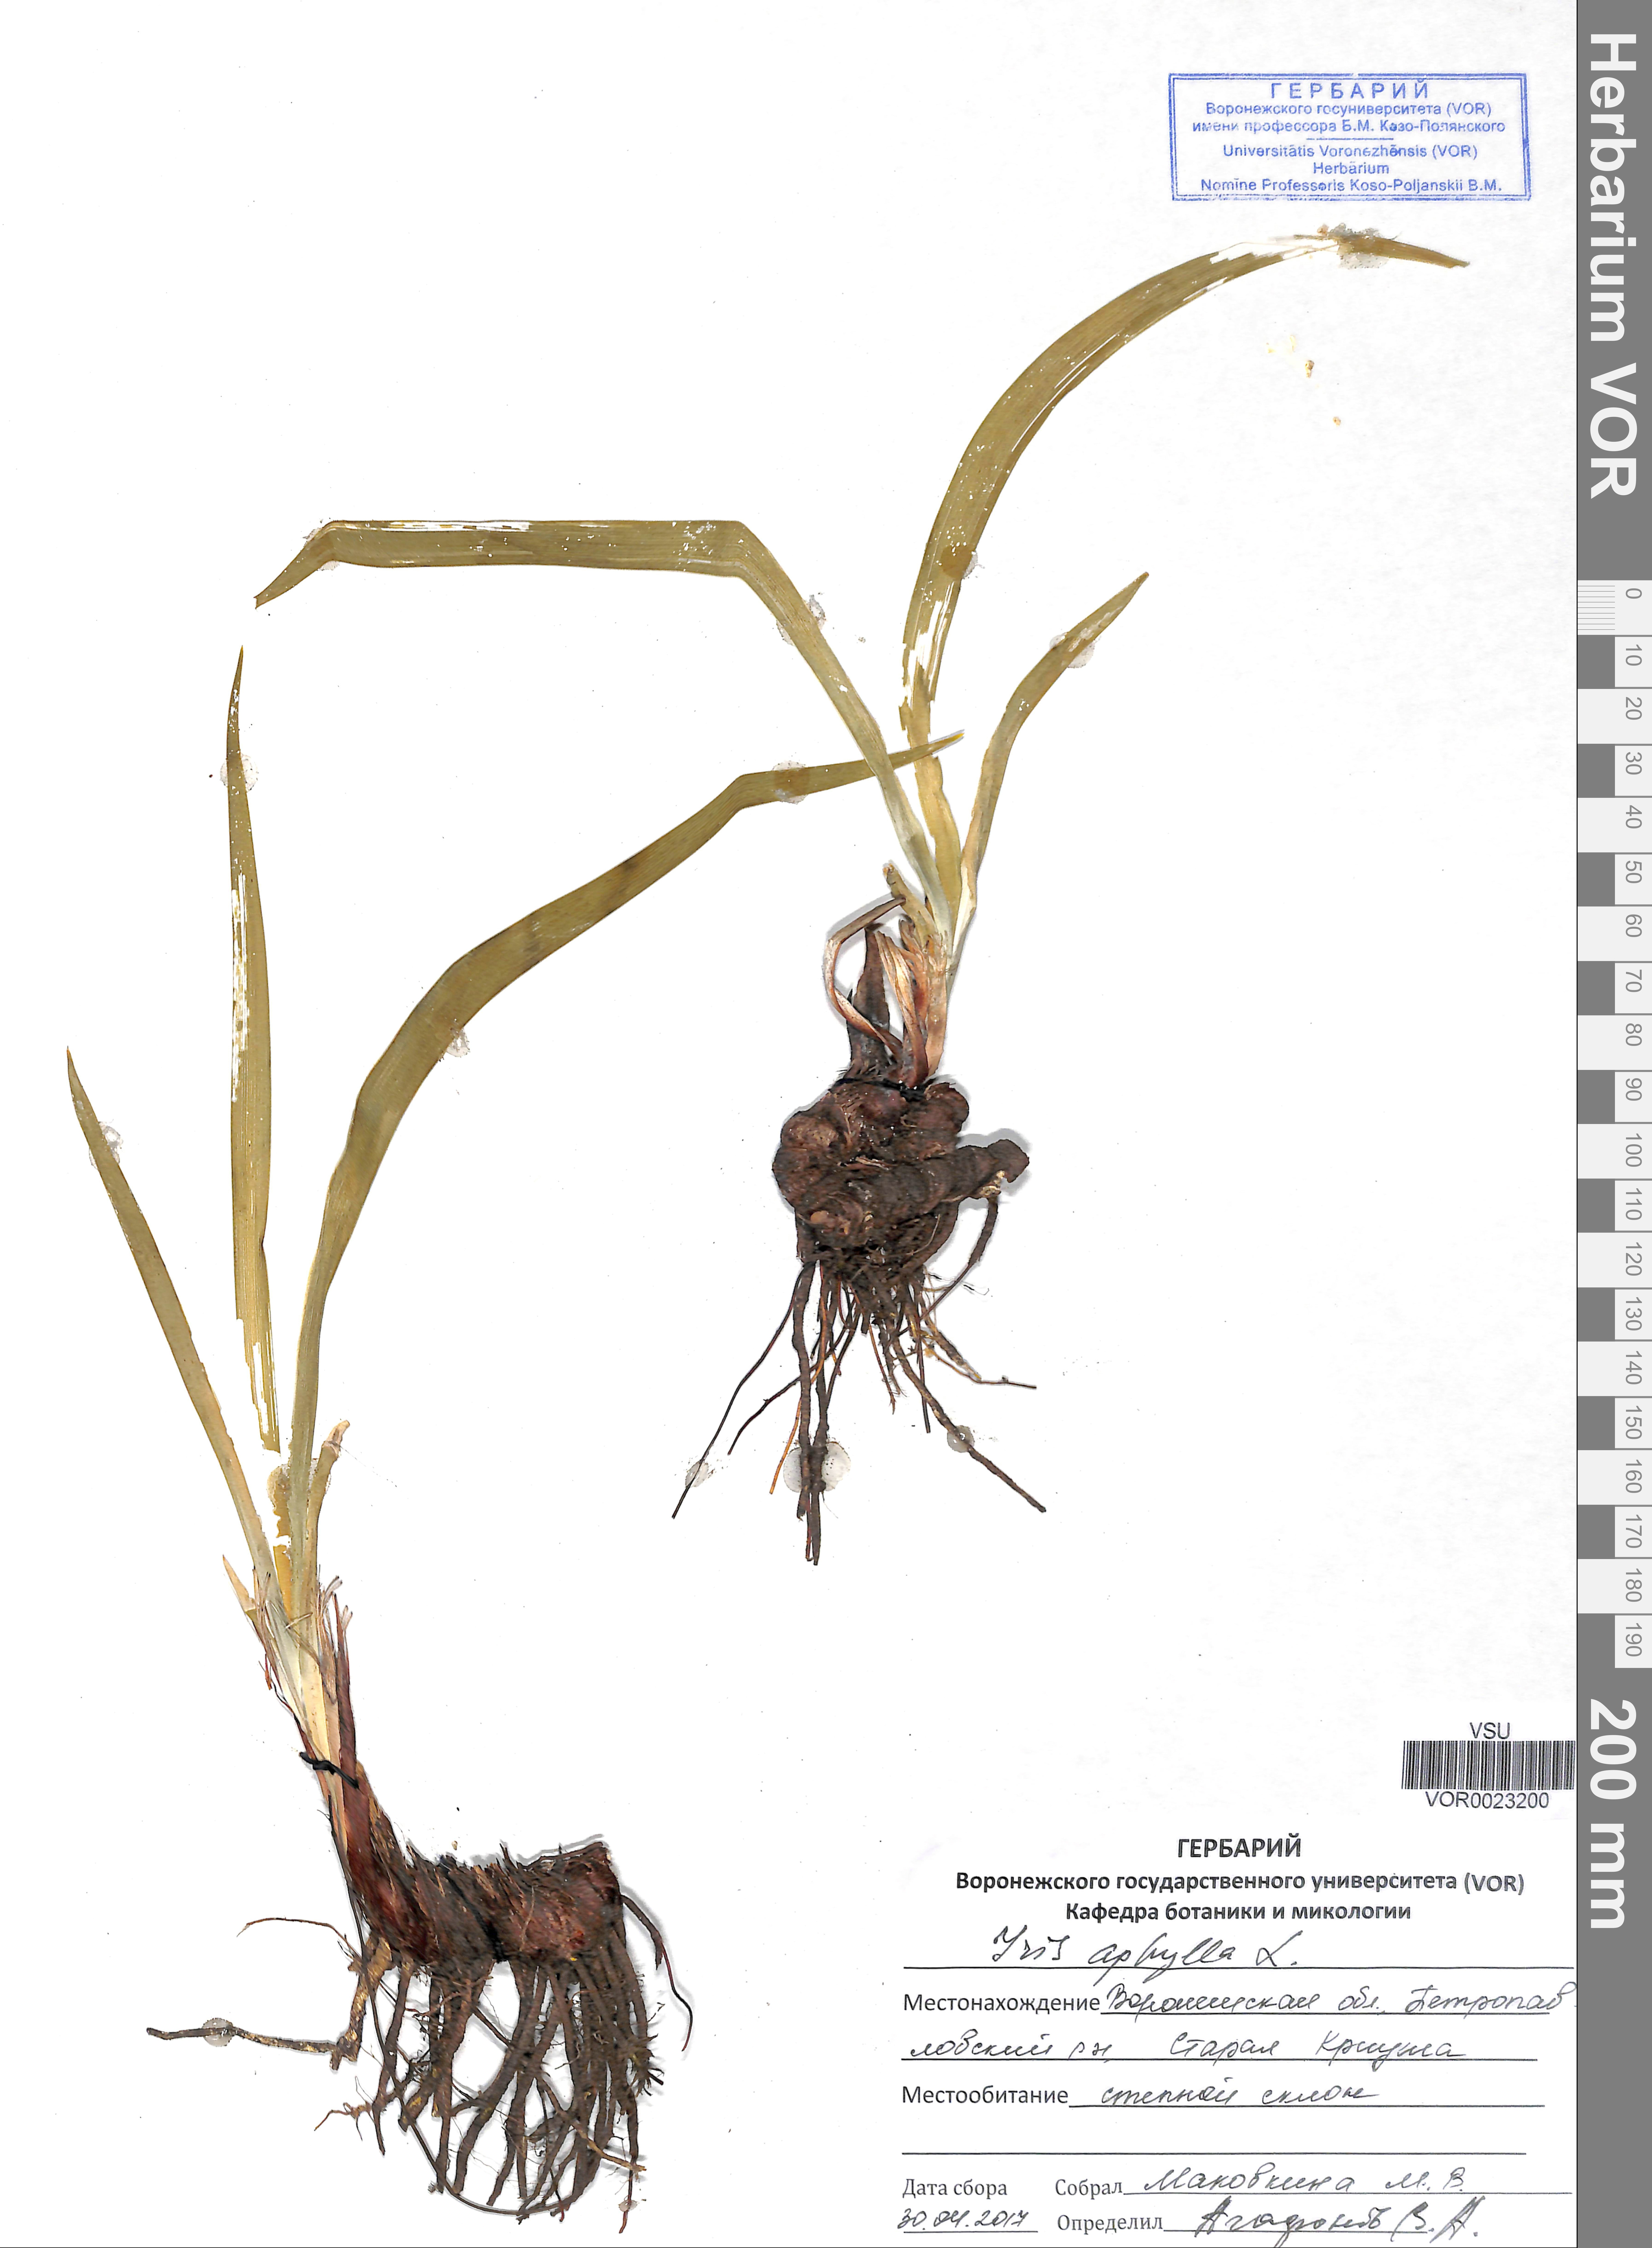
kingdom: Plantae
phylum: Tracheophyta
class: Liliopsida
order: Asparagales
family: Iridaceae
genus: Iris
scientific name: Iris aphylla
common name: Stool iris
